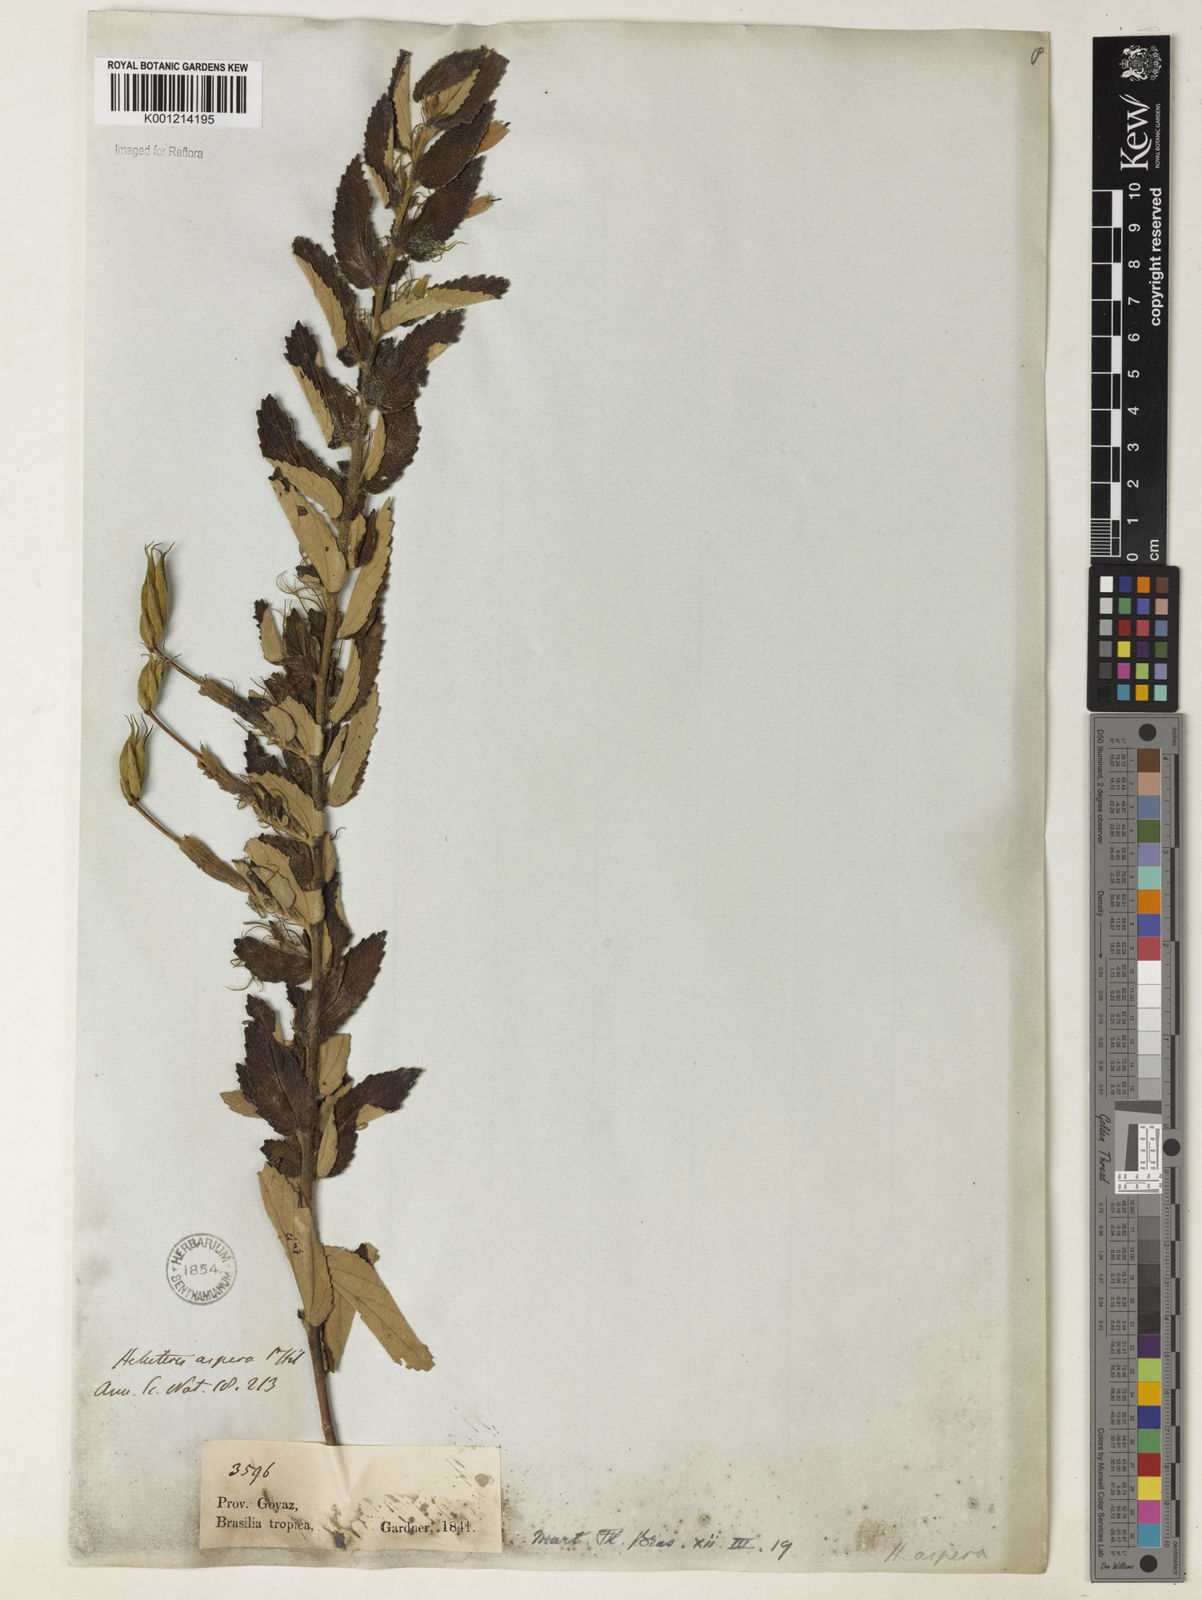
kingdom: Plantae
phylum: Tracheophyta
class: Magnoliopsida
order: Malvales
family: Malvaceae
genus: Helicteres
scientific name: Helicteres aspera
